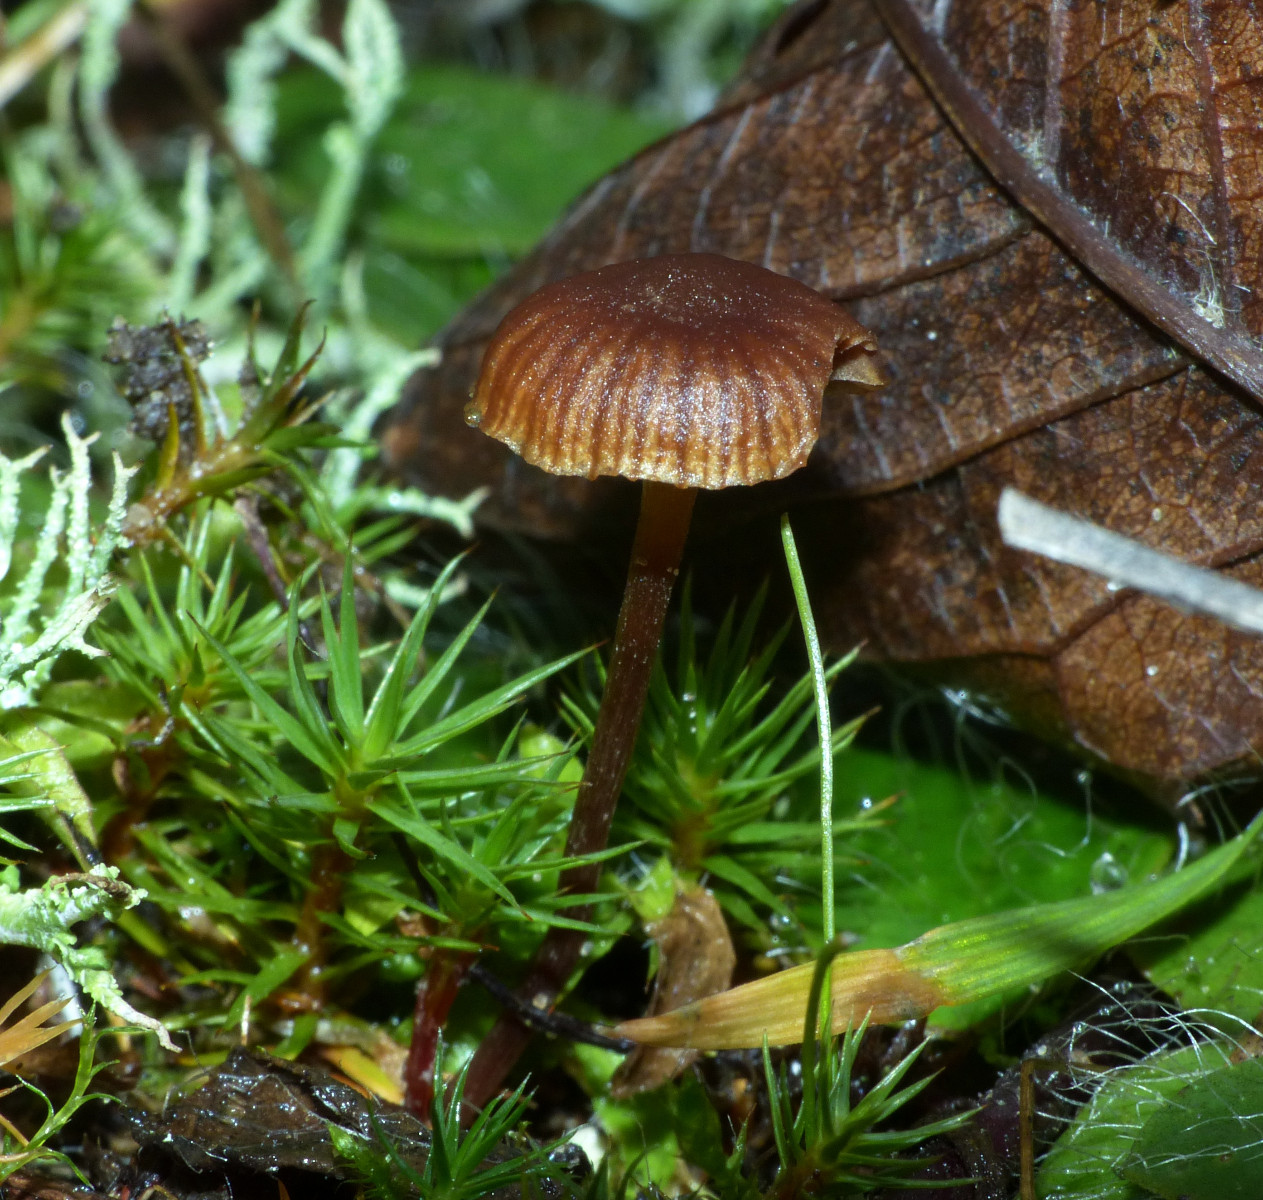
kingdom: Fungi
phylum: Basidiomycota
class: Agaricomycetes
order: Agaricales
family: Strophariaceae
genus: Deconica
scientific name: Deconica montana
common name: rødbrun stråhat
